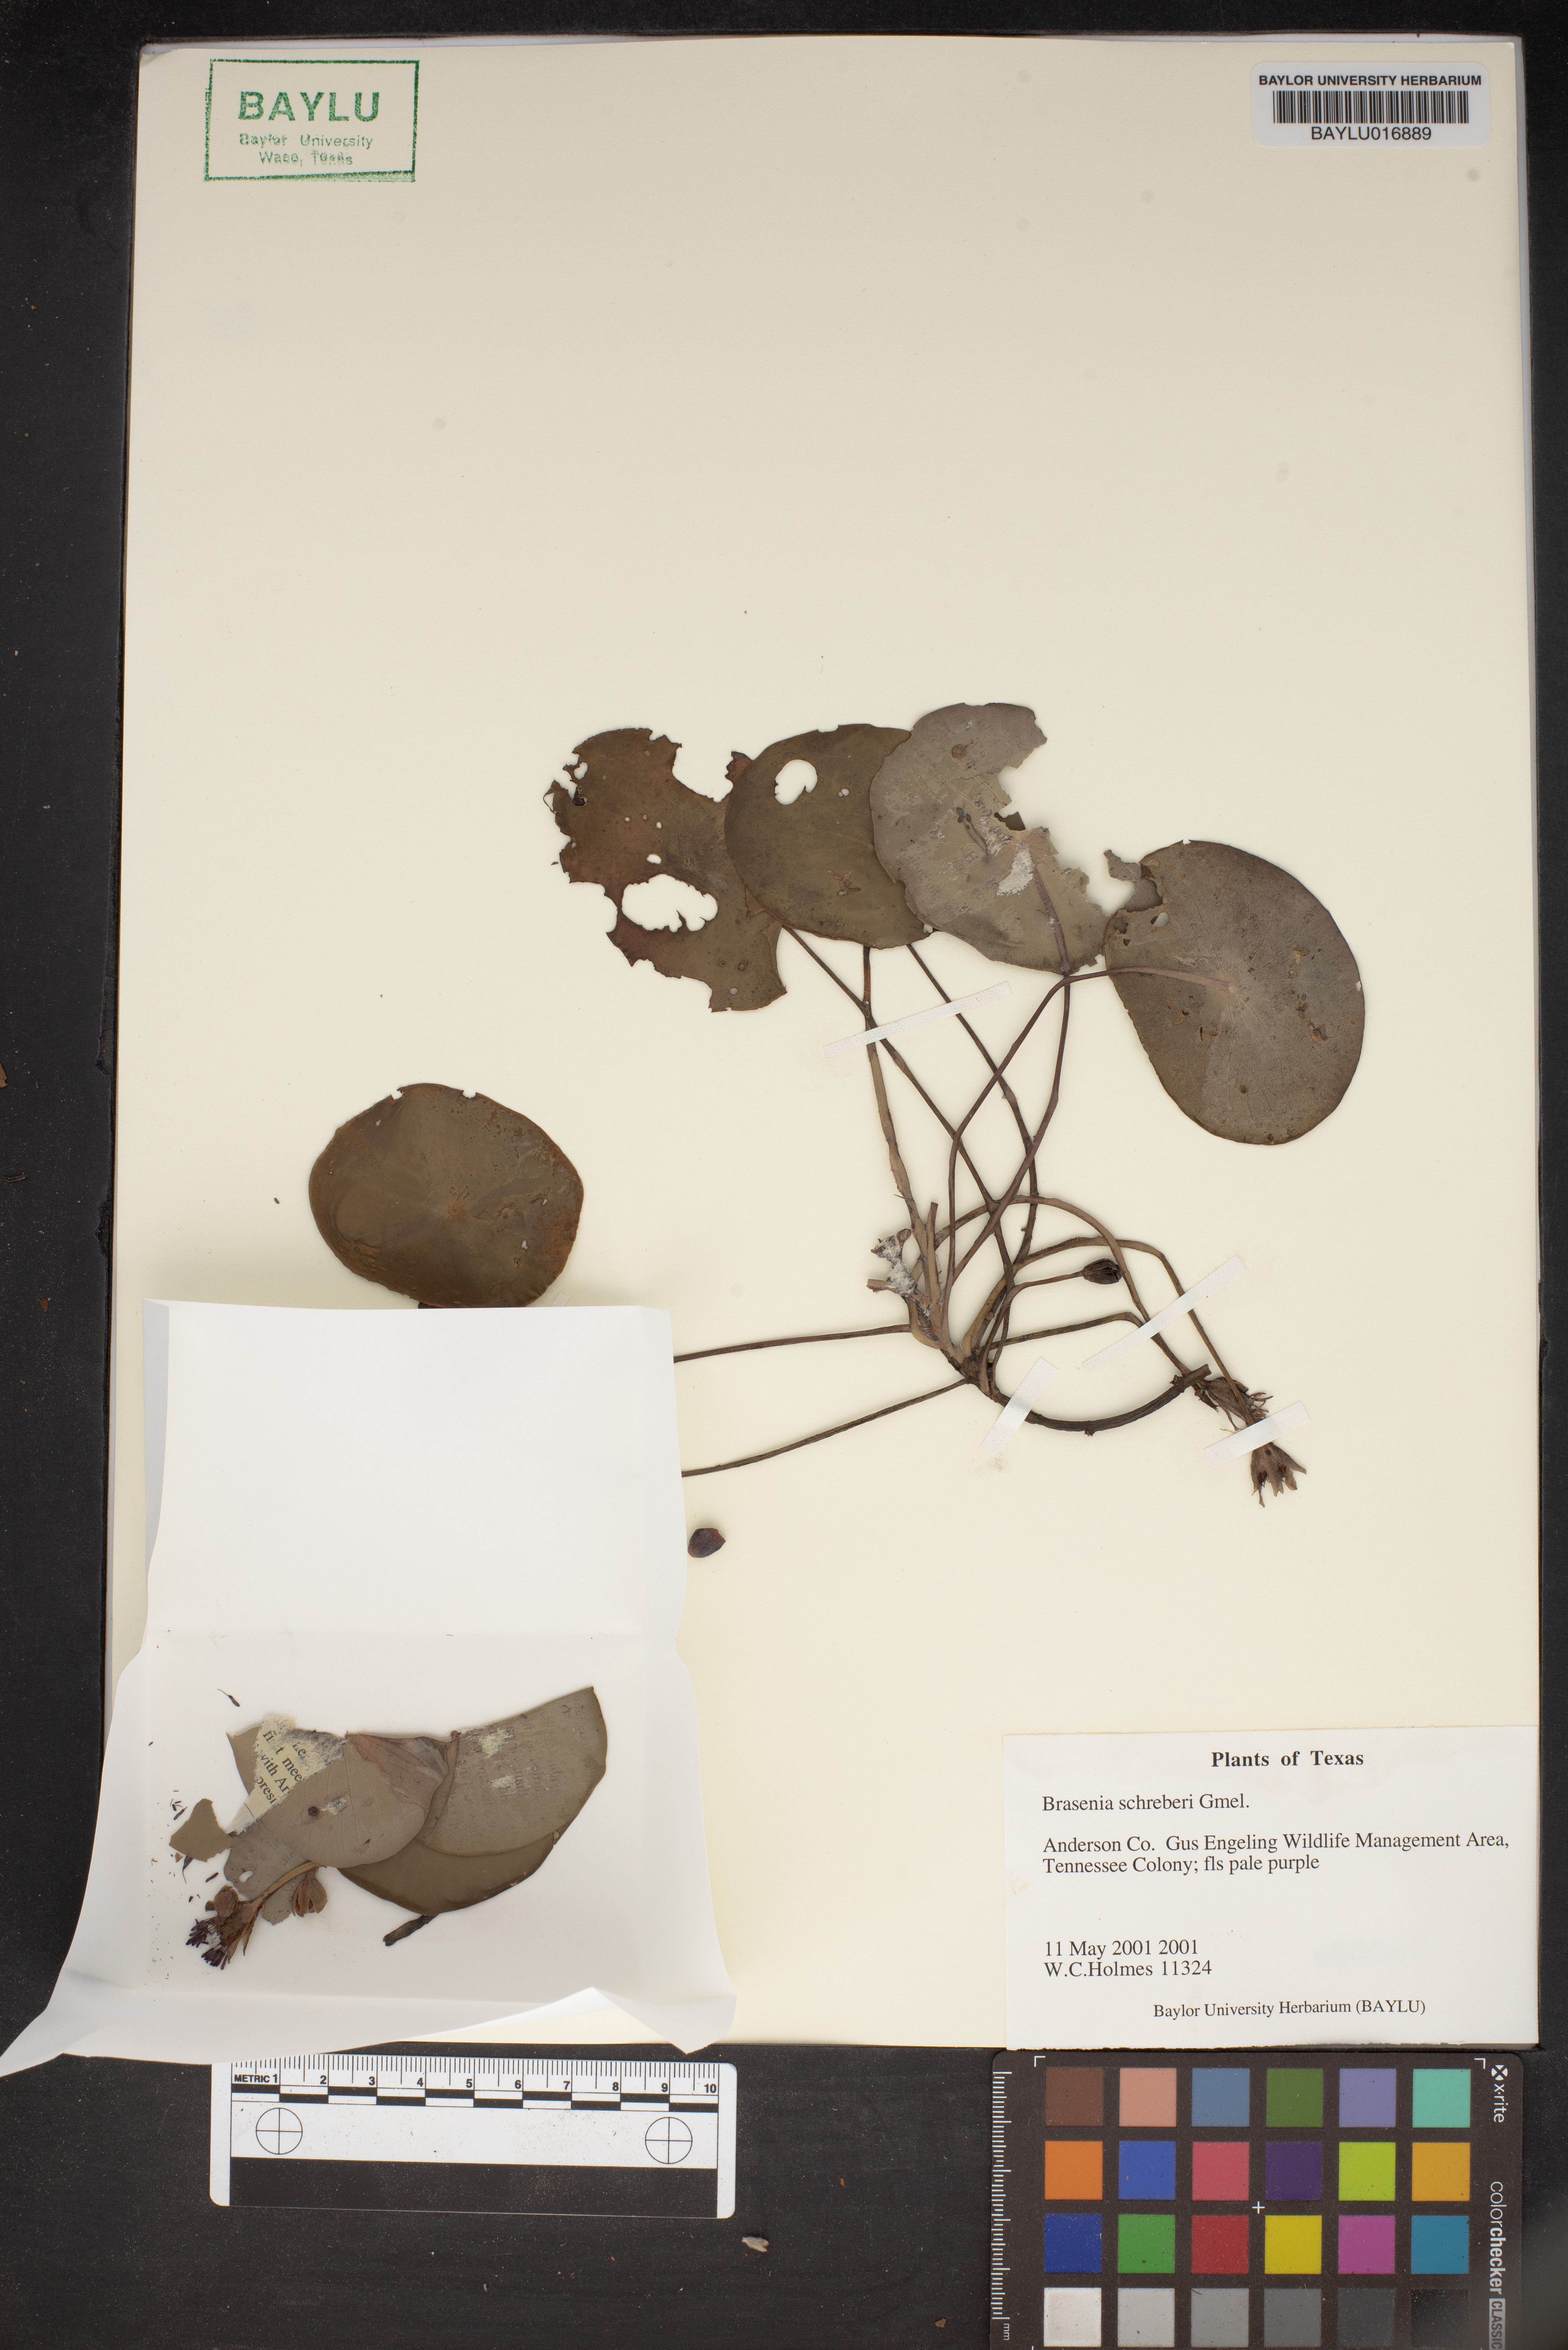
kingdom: Plantae
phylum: Tracheophyta
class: Magnoliopsida
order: Nymphaeales
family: Cabombaceae
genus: Brasenia
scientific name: Brasenia schreberi
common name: Water-shield
